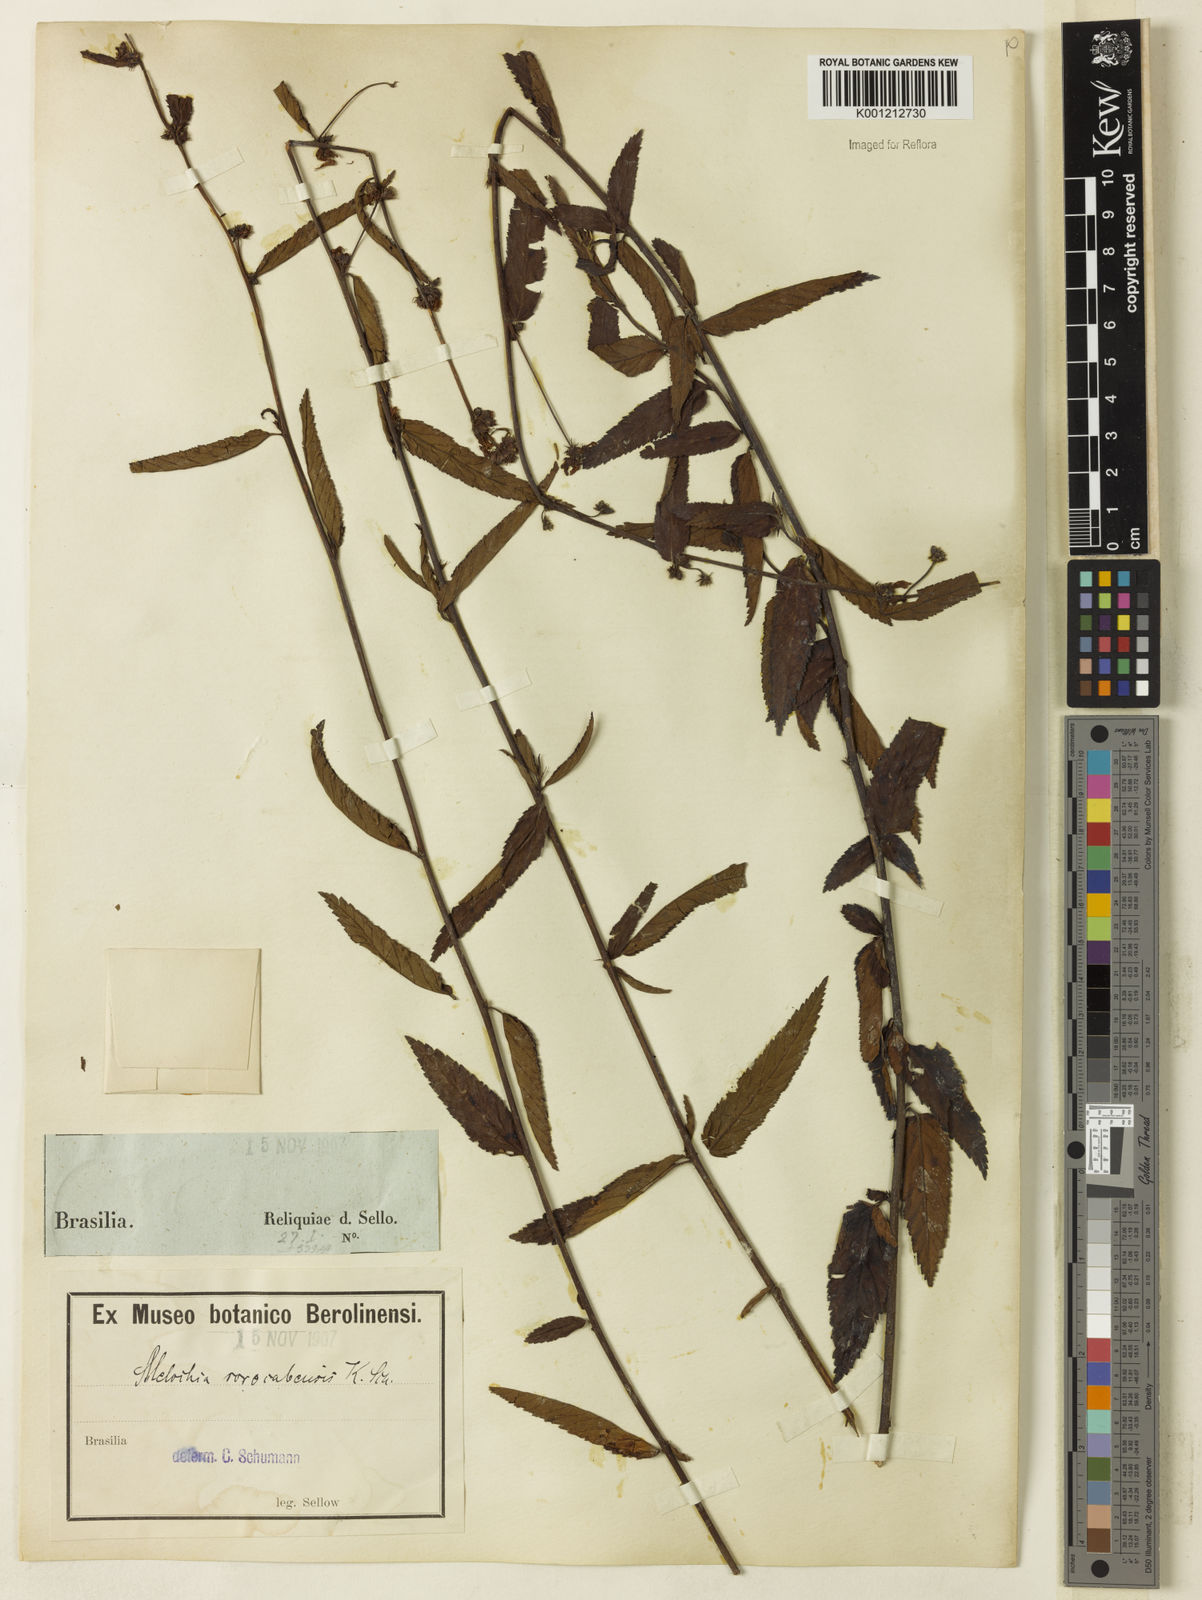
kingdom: Plantae
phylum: Tracheophyta
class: Magnoliopsida
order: Malvales
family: Malvaceae
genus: Melochia
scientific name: Melochia simplex
